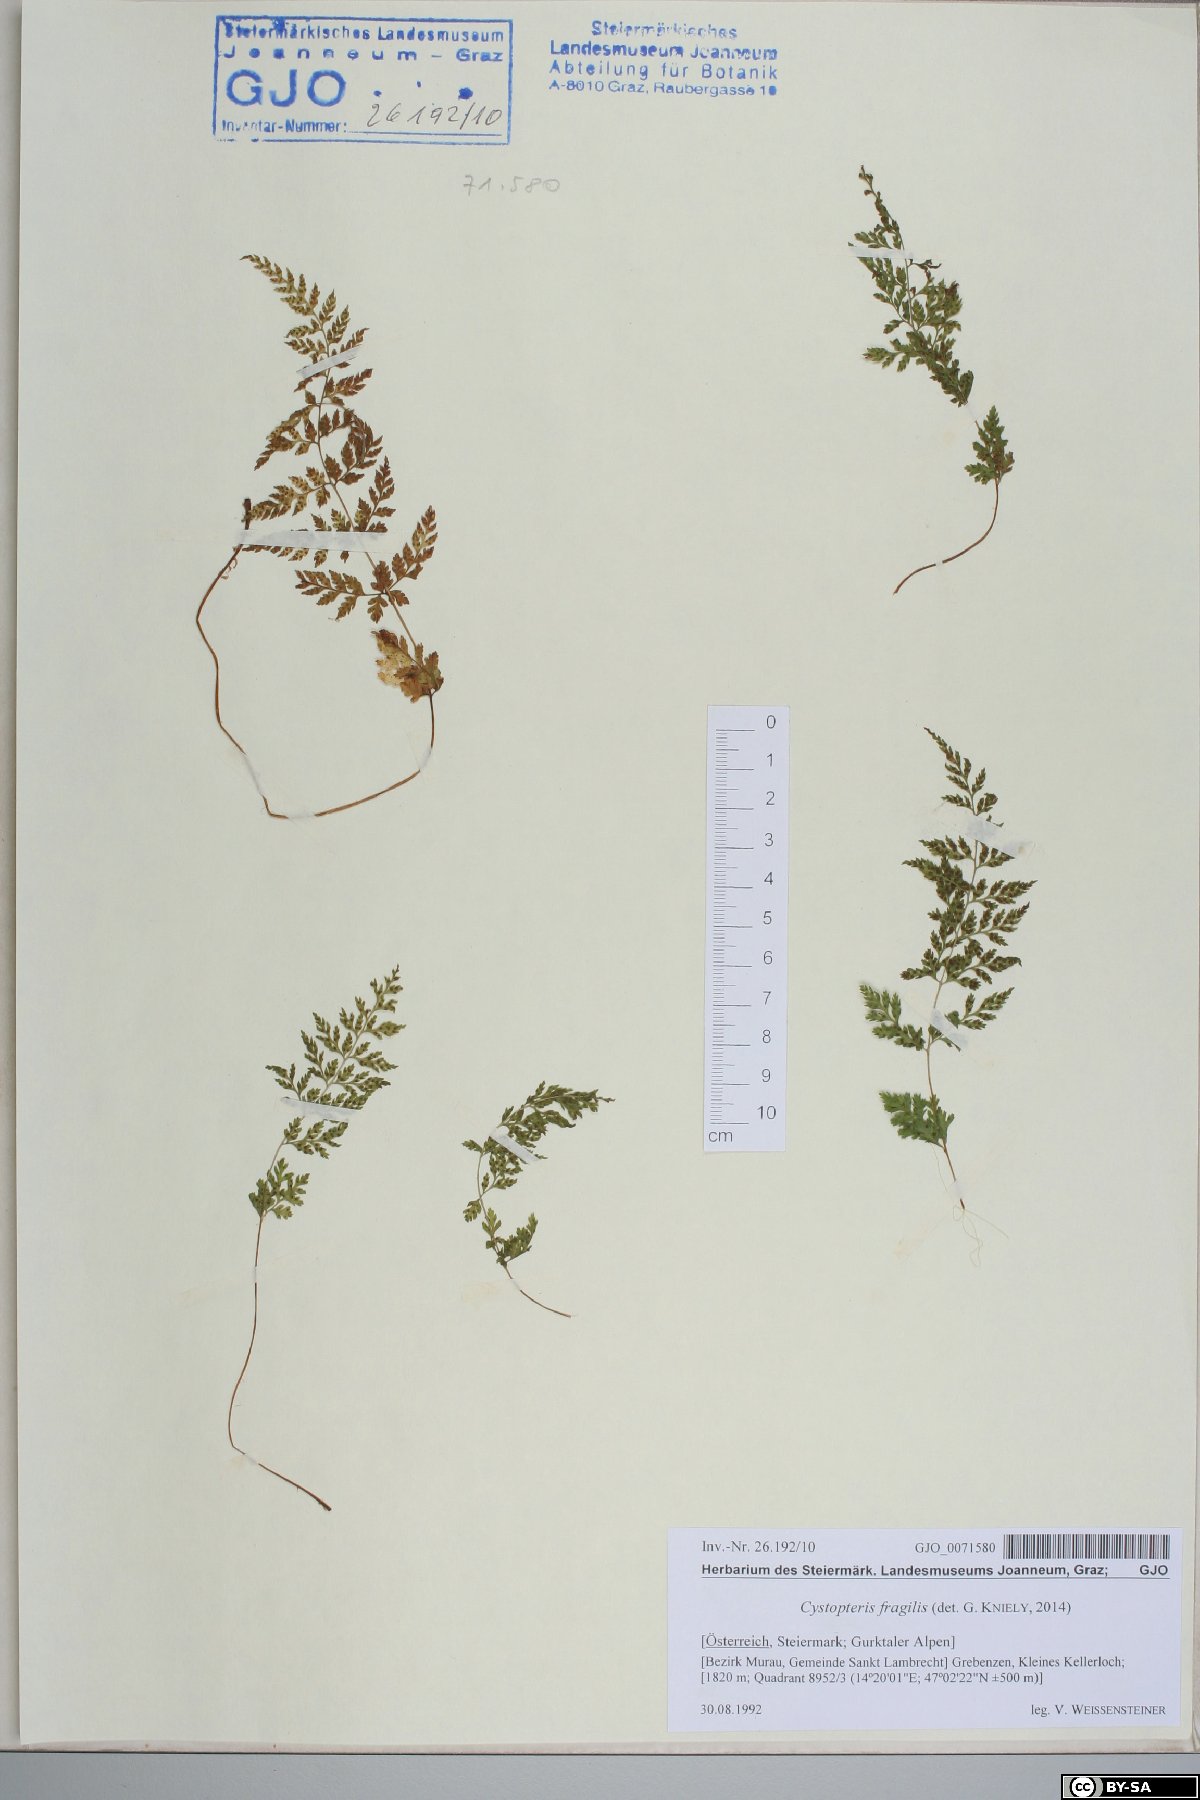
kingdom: Plantae
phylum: Tracheophyta
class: Polypodiopsida
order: Polypodiales
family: Cystopteridaceae
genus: Cystopteris
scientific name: Cystopteris fragilis
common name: Brittle bladder fern
